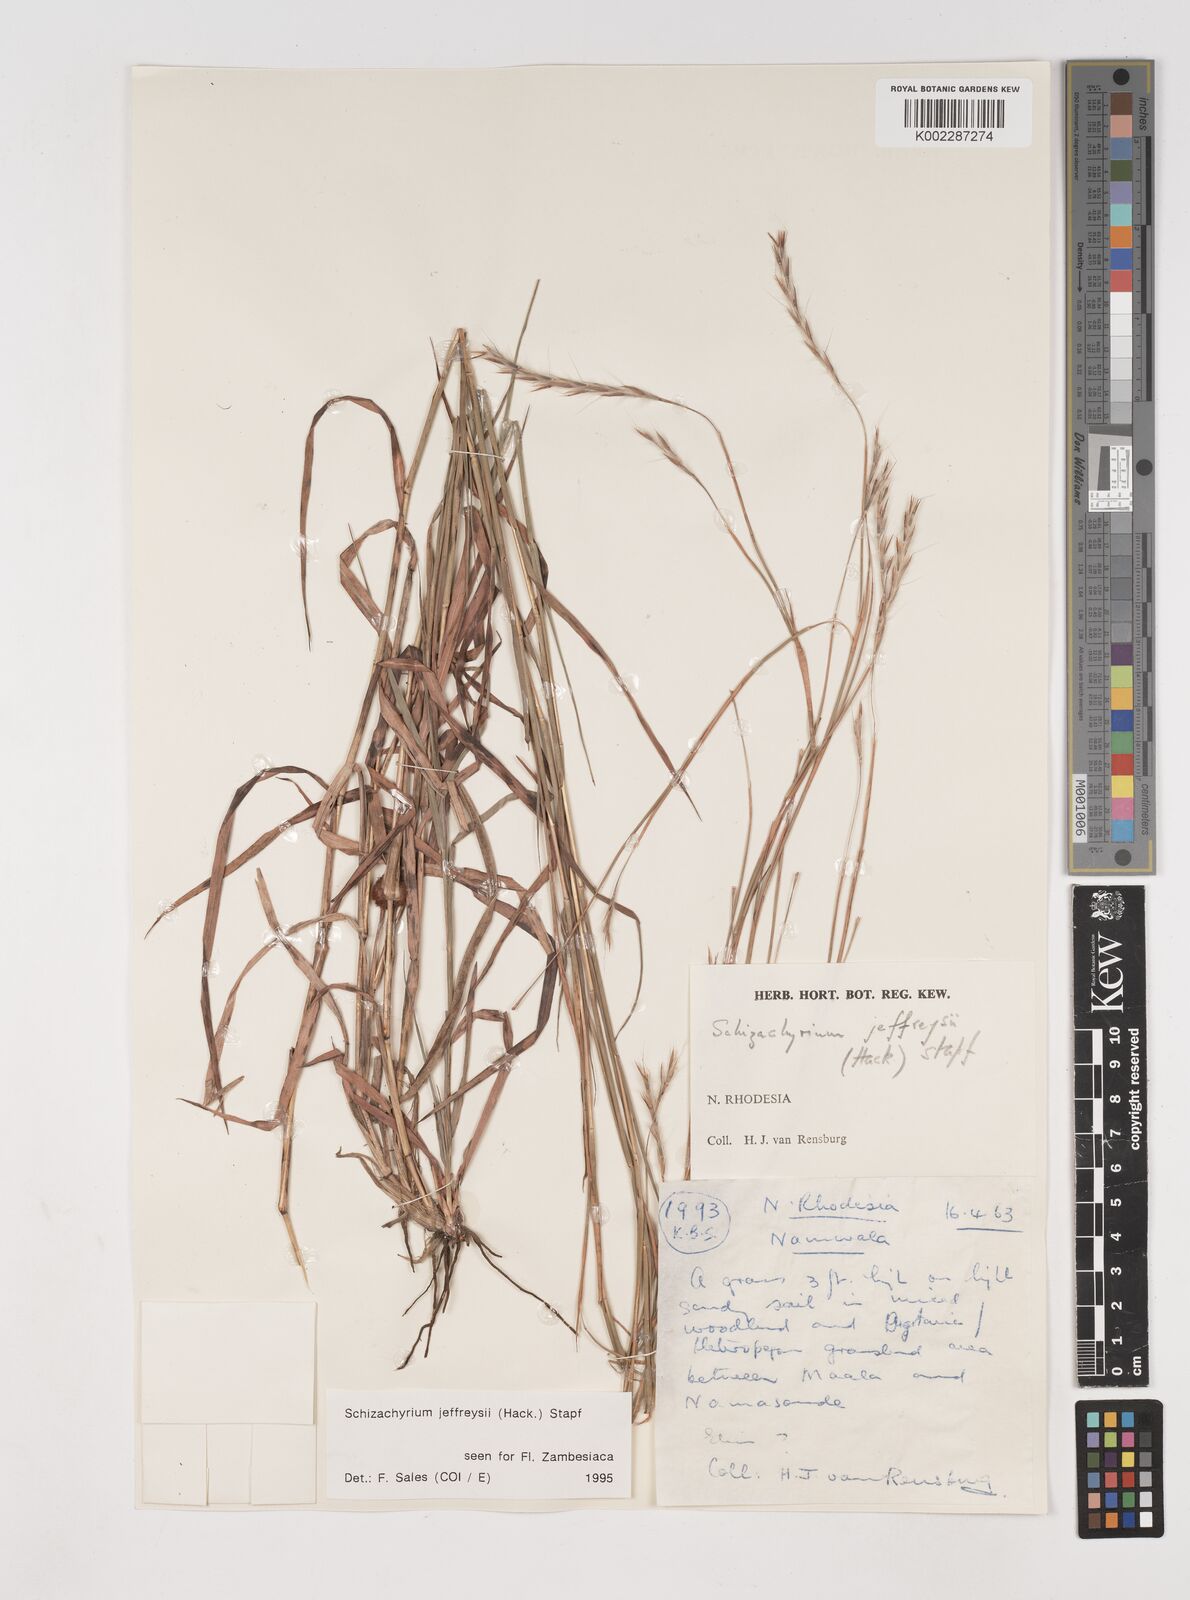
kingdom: Plantae
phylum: Tracheophyta
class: Liliopsida
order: Poales
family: Poaceae
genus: Schizachyrium
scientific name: Schizachyrium jeffreysii
